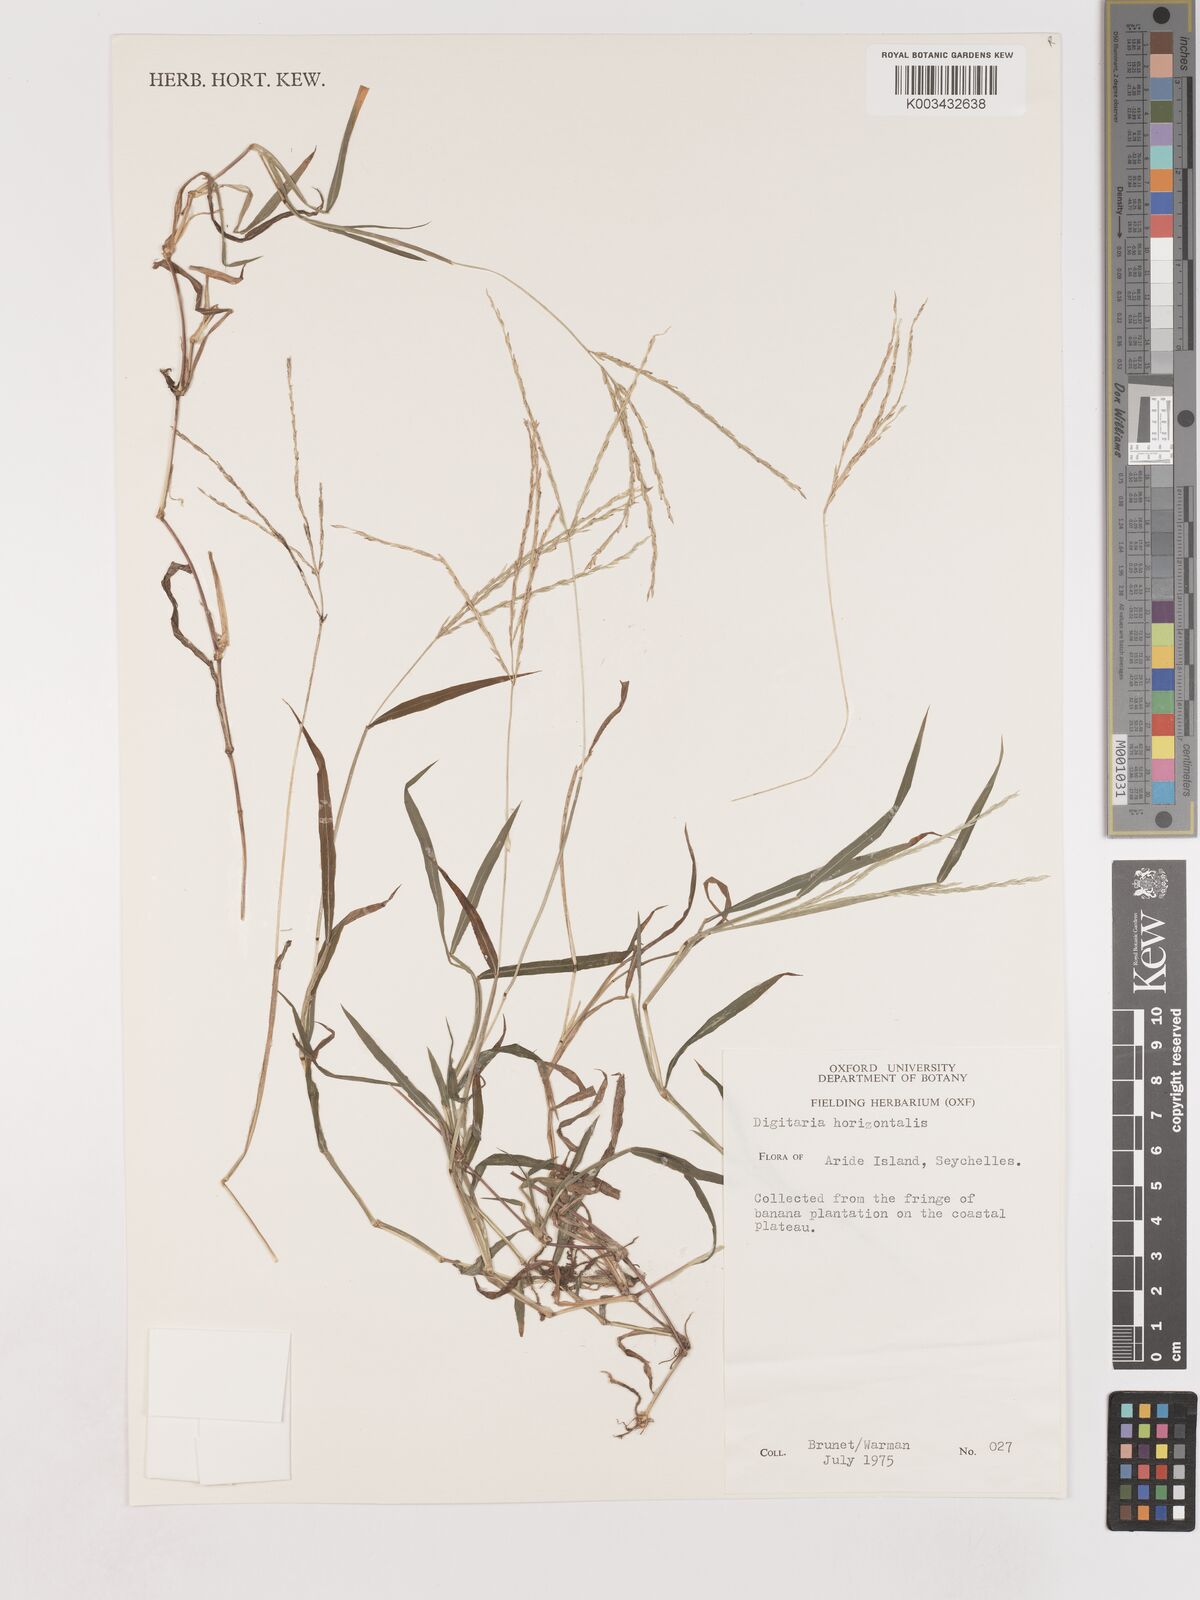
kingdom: Plantae
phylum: Tracheophyta
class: Liliopsida
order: Poales
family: Poaceae
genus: Digitaria
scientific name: Digitaria horizontalis
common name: Jamaican crabgrass
